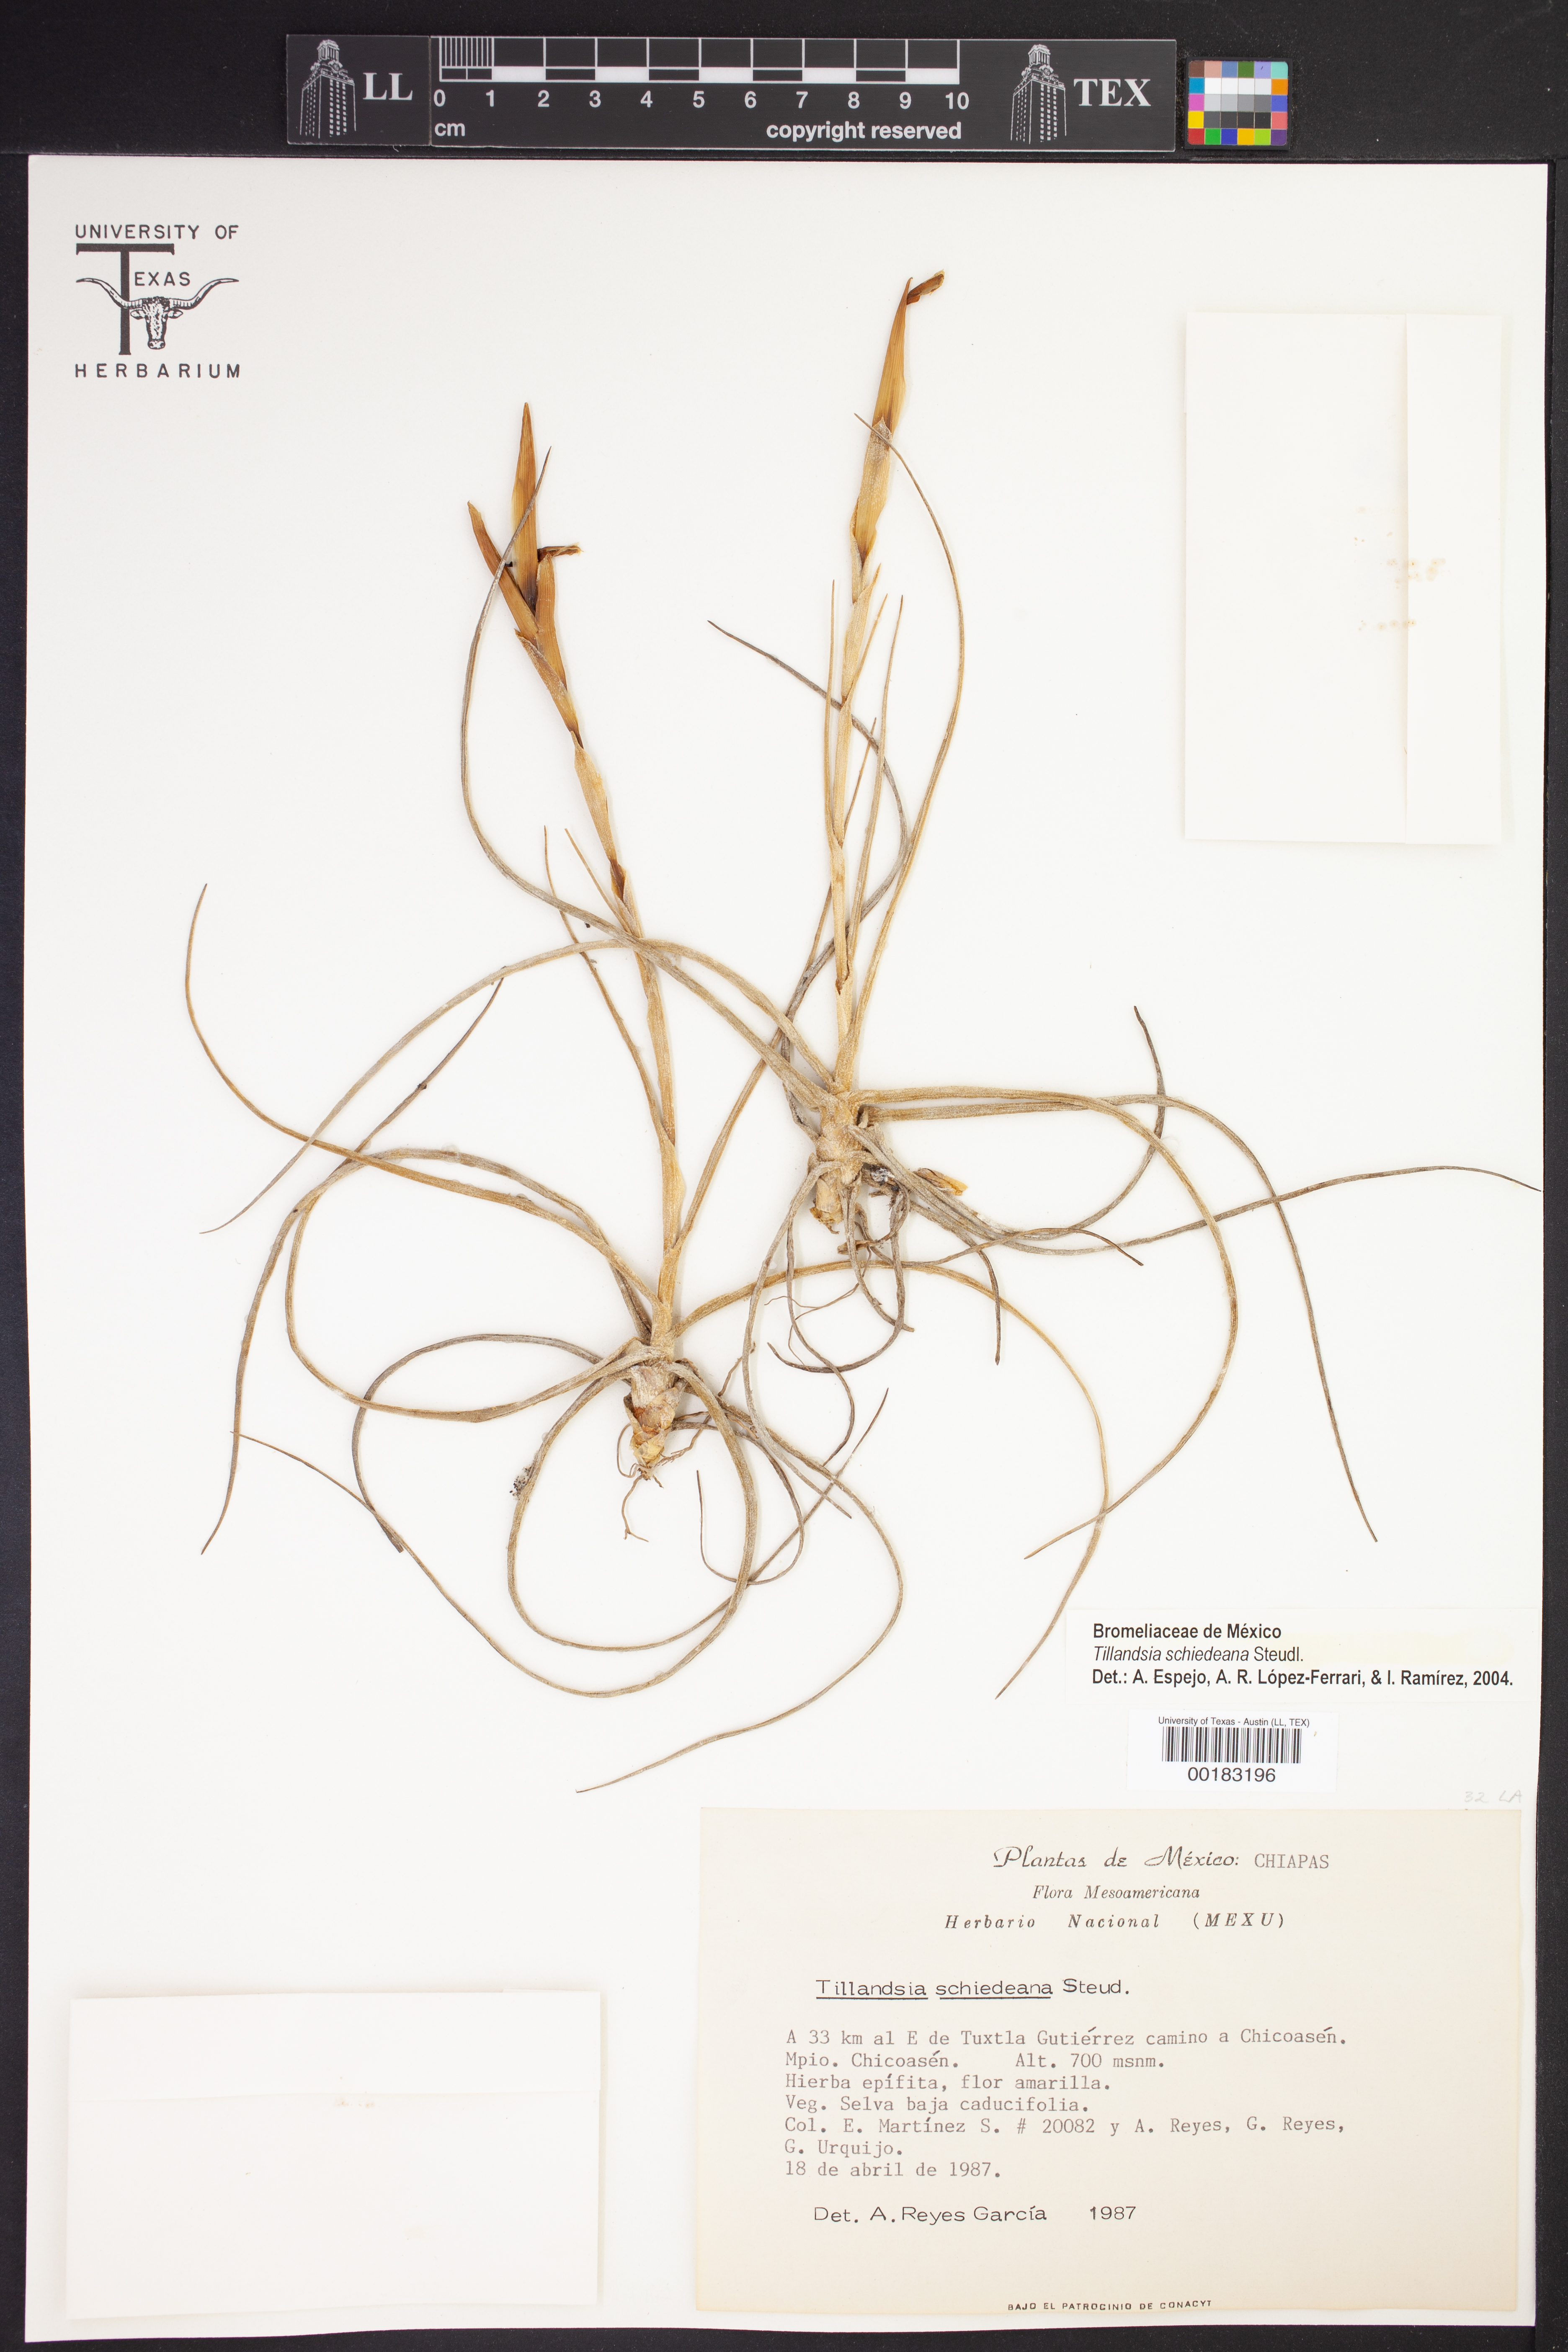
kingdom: Plantae
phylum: Tracheophyta
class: Liliopsida
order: Poales
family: Bromeliaceae
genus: Tillandsia
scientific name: Tillandsia schiedeana
